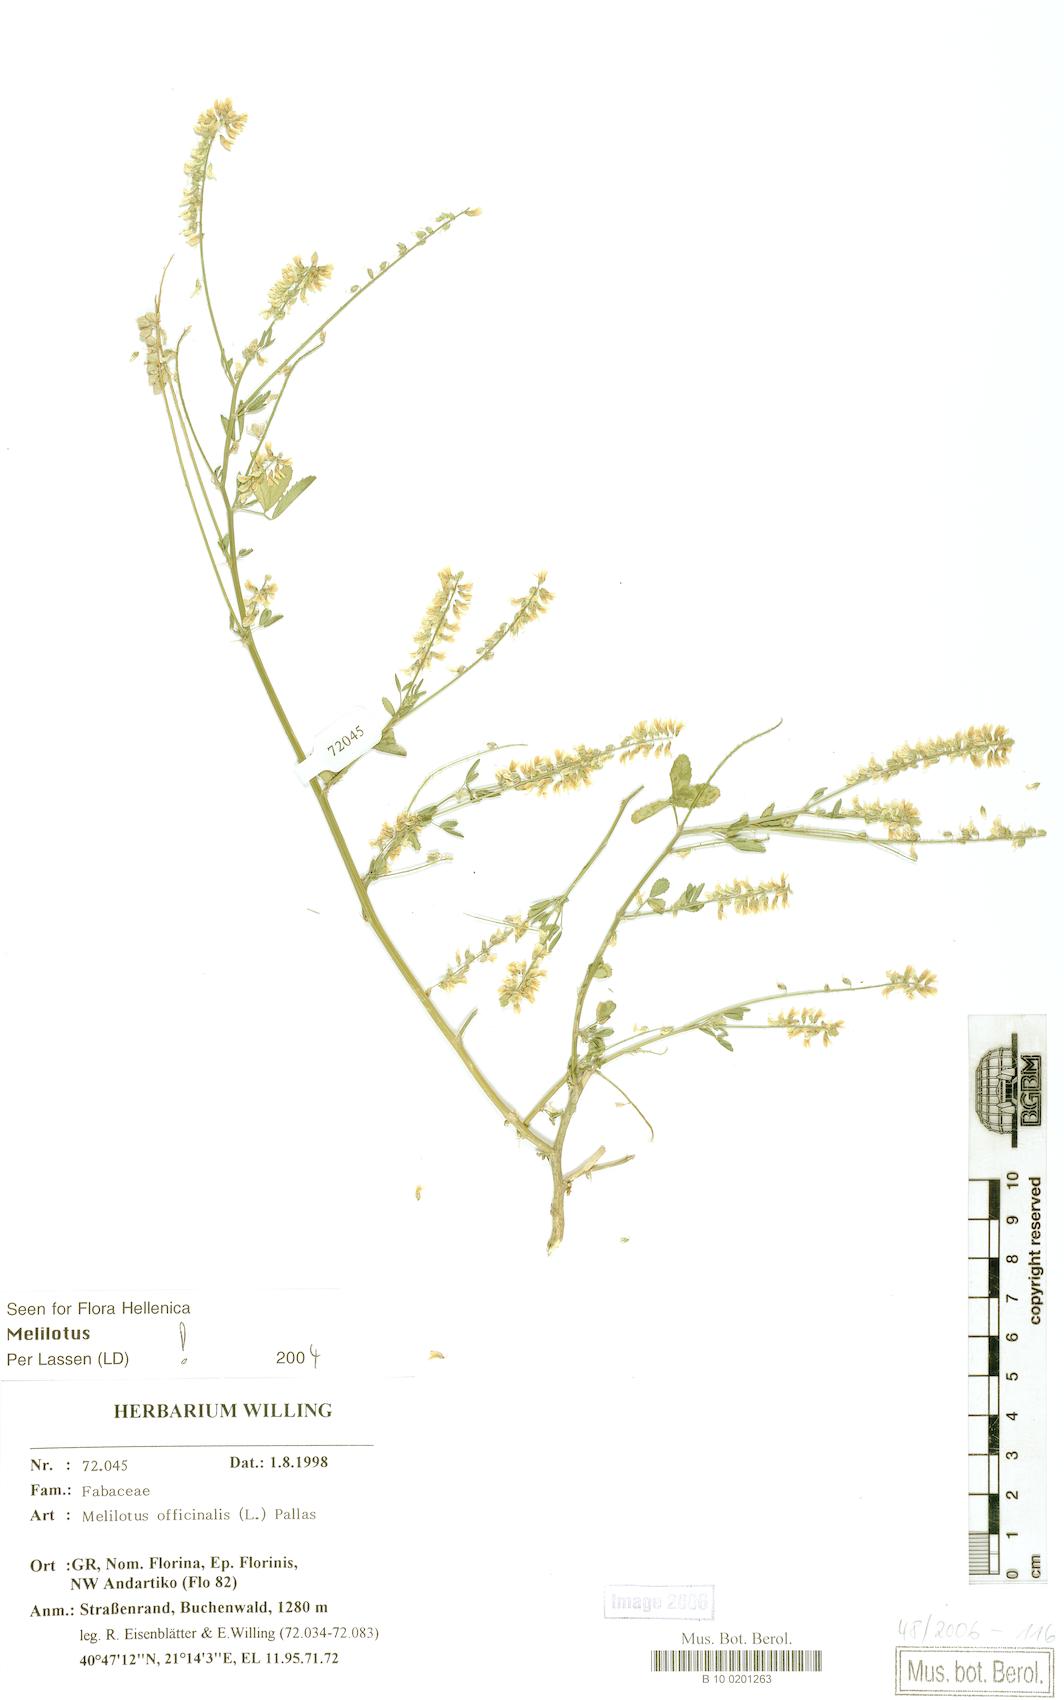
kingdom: Plantae
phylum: Tracheophyta
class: Magnoliopsida
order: Fabales
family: Fabaceae
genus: Melilotus
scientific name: Melilotus officinalis
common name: Sweetclover
